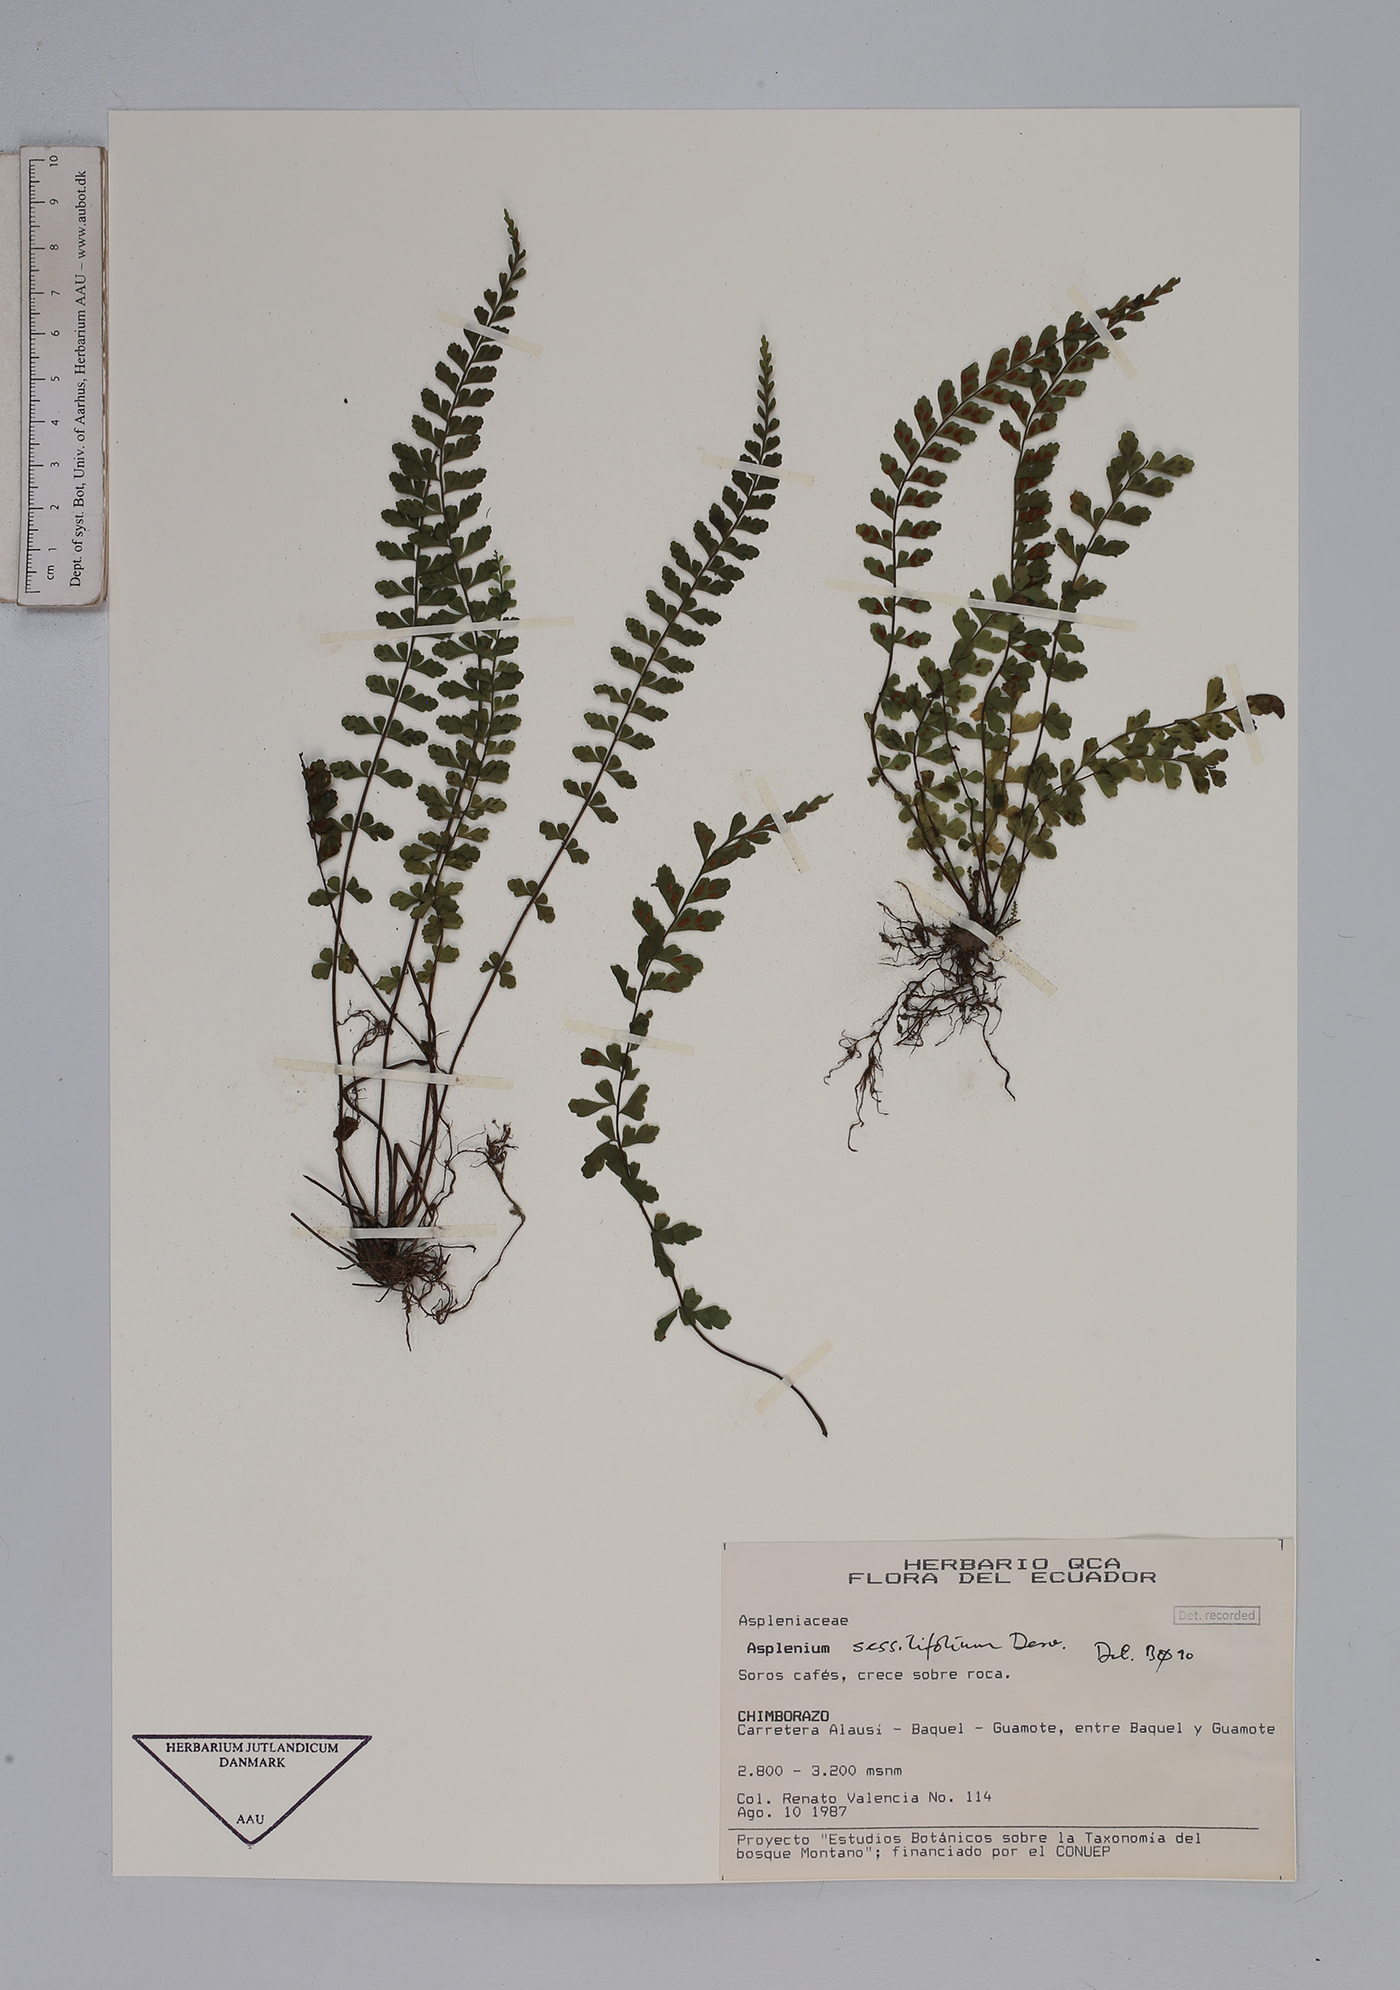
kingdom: Plantae
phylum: Tracheophyta
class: Polypodiopsida
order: Polypodiales
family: Aspleniaceae
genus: Asplenium
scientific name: Asplenium sessilifolium
